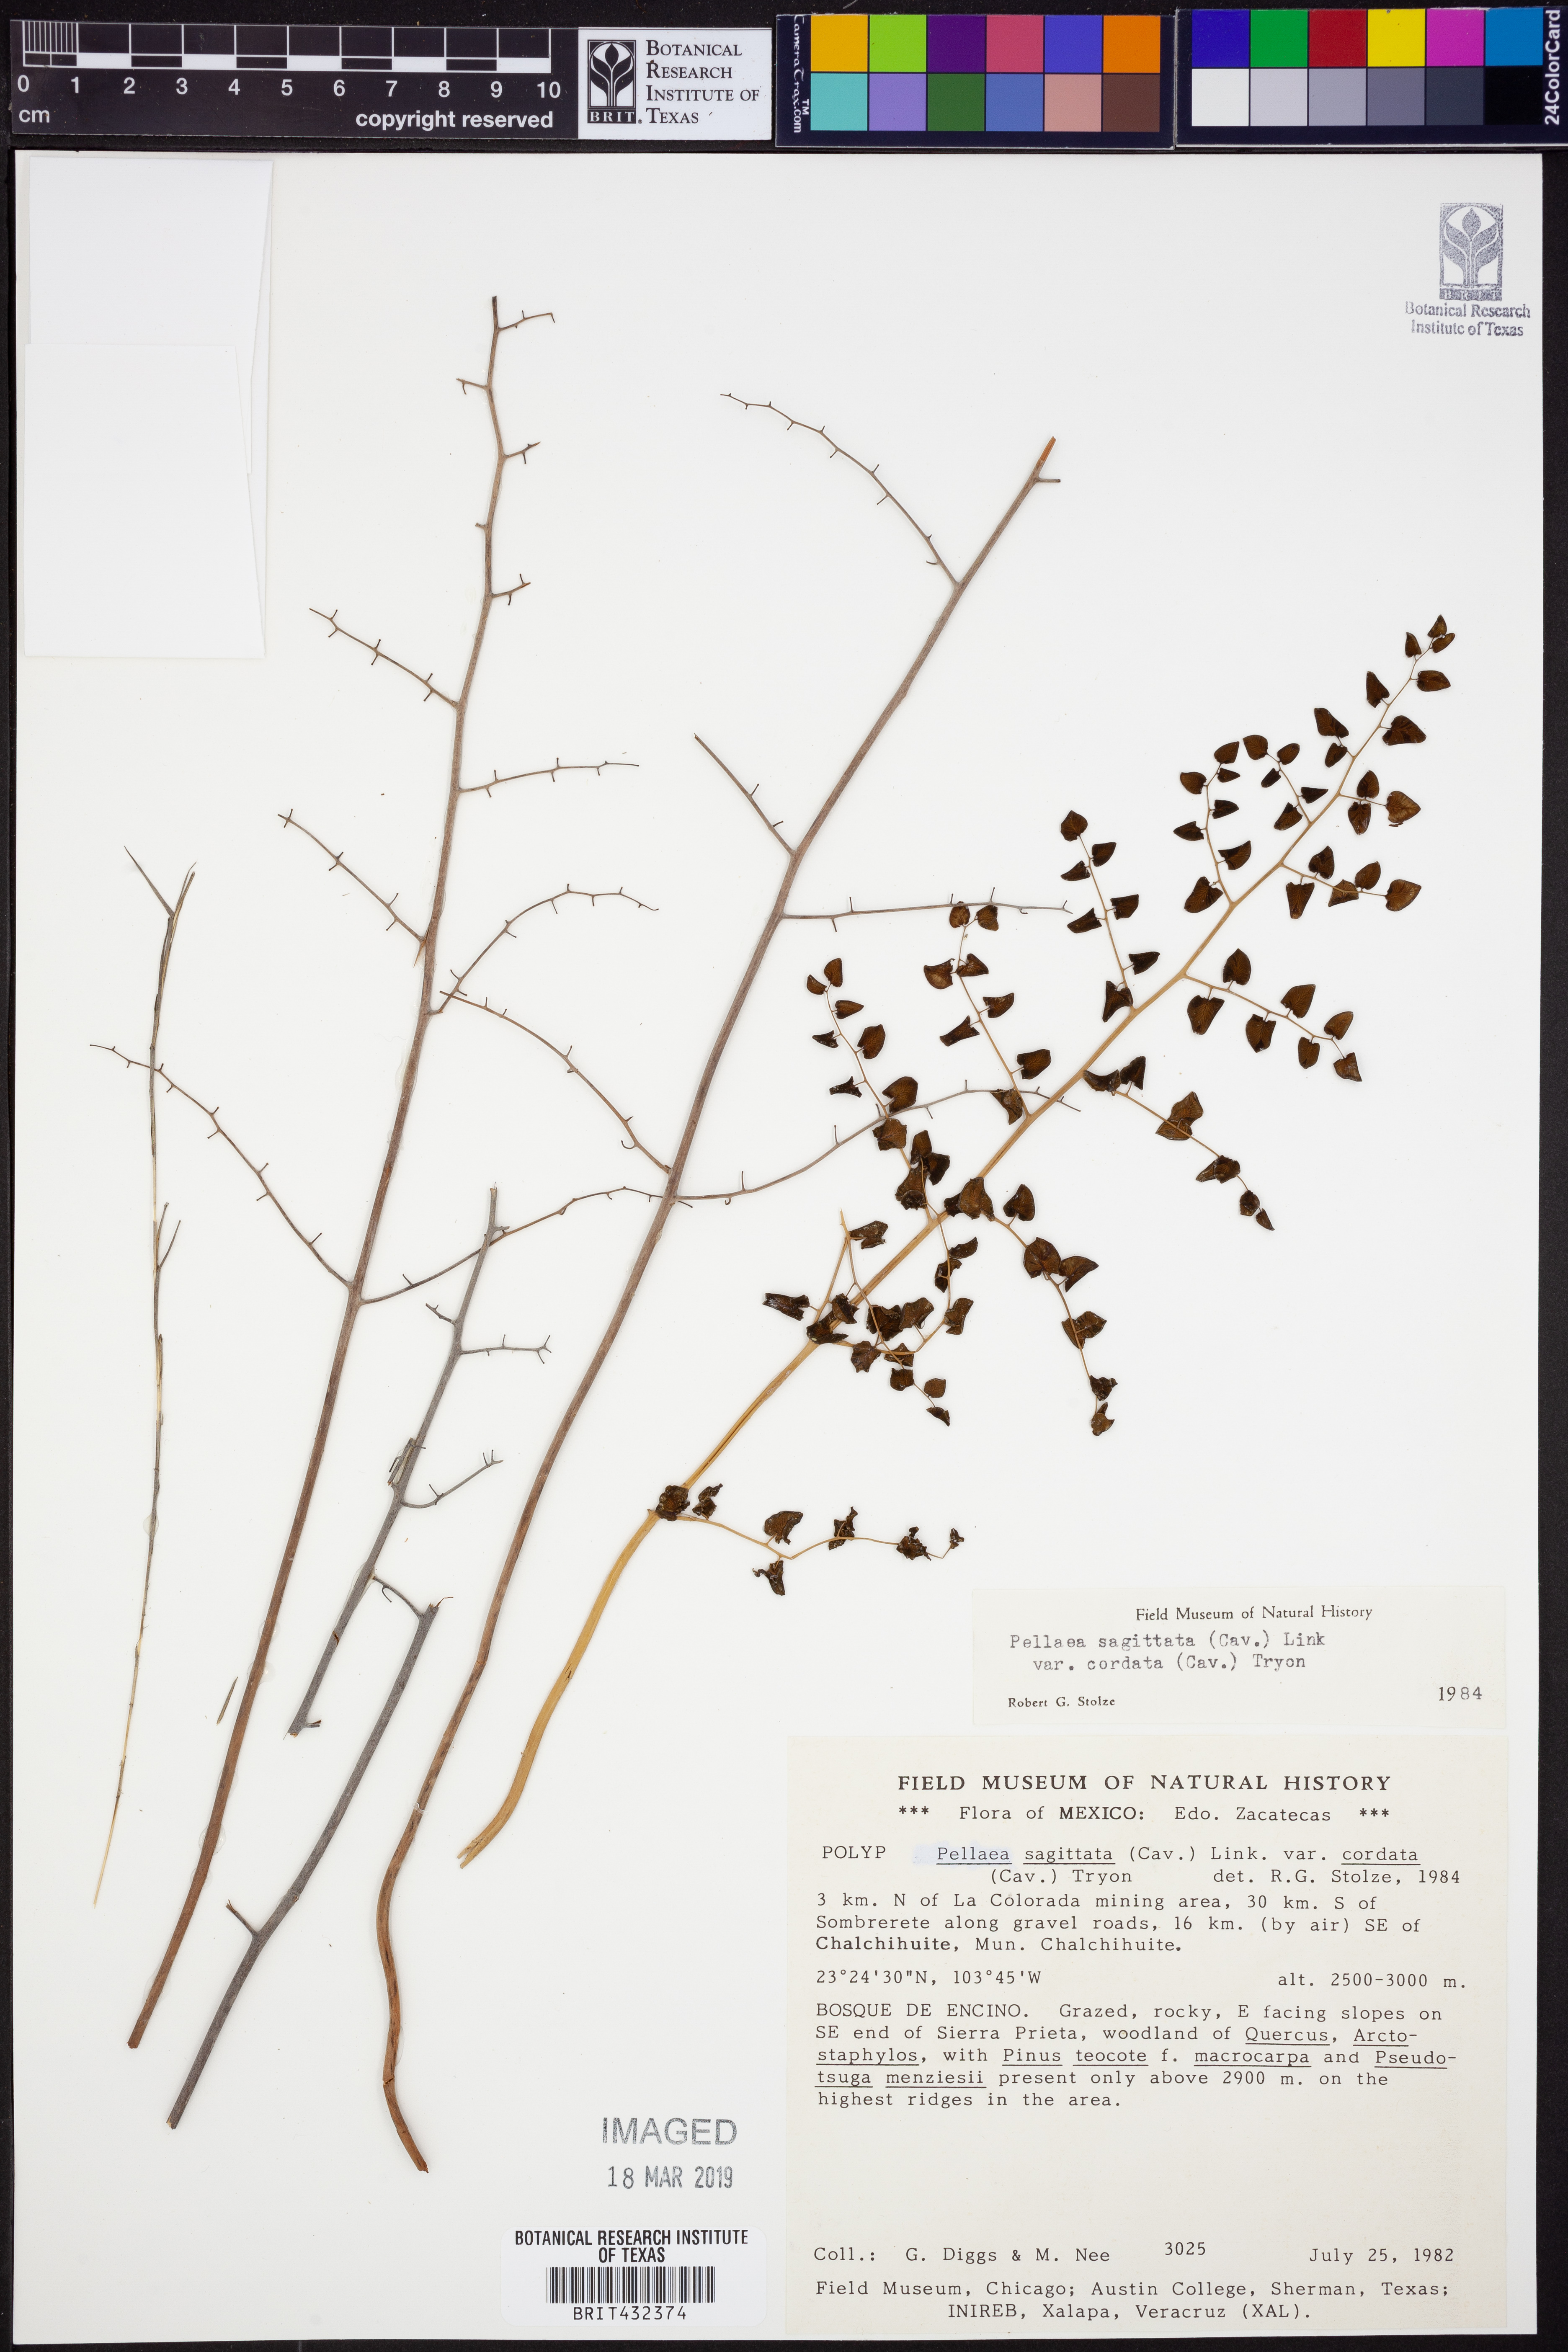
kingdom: Plantae
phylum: Tracheophyta
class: Polypodiopsida
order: Polypodiales
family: Pteridaceae
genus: Pellaea
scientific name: Pellaea cordifolia
